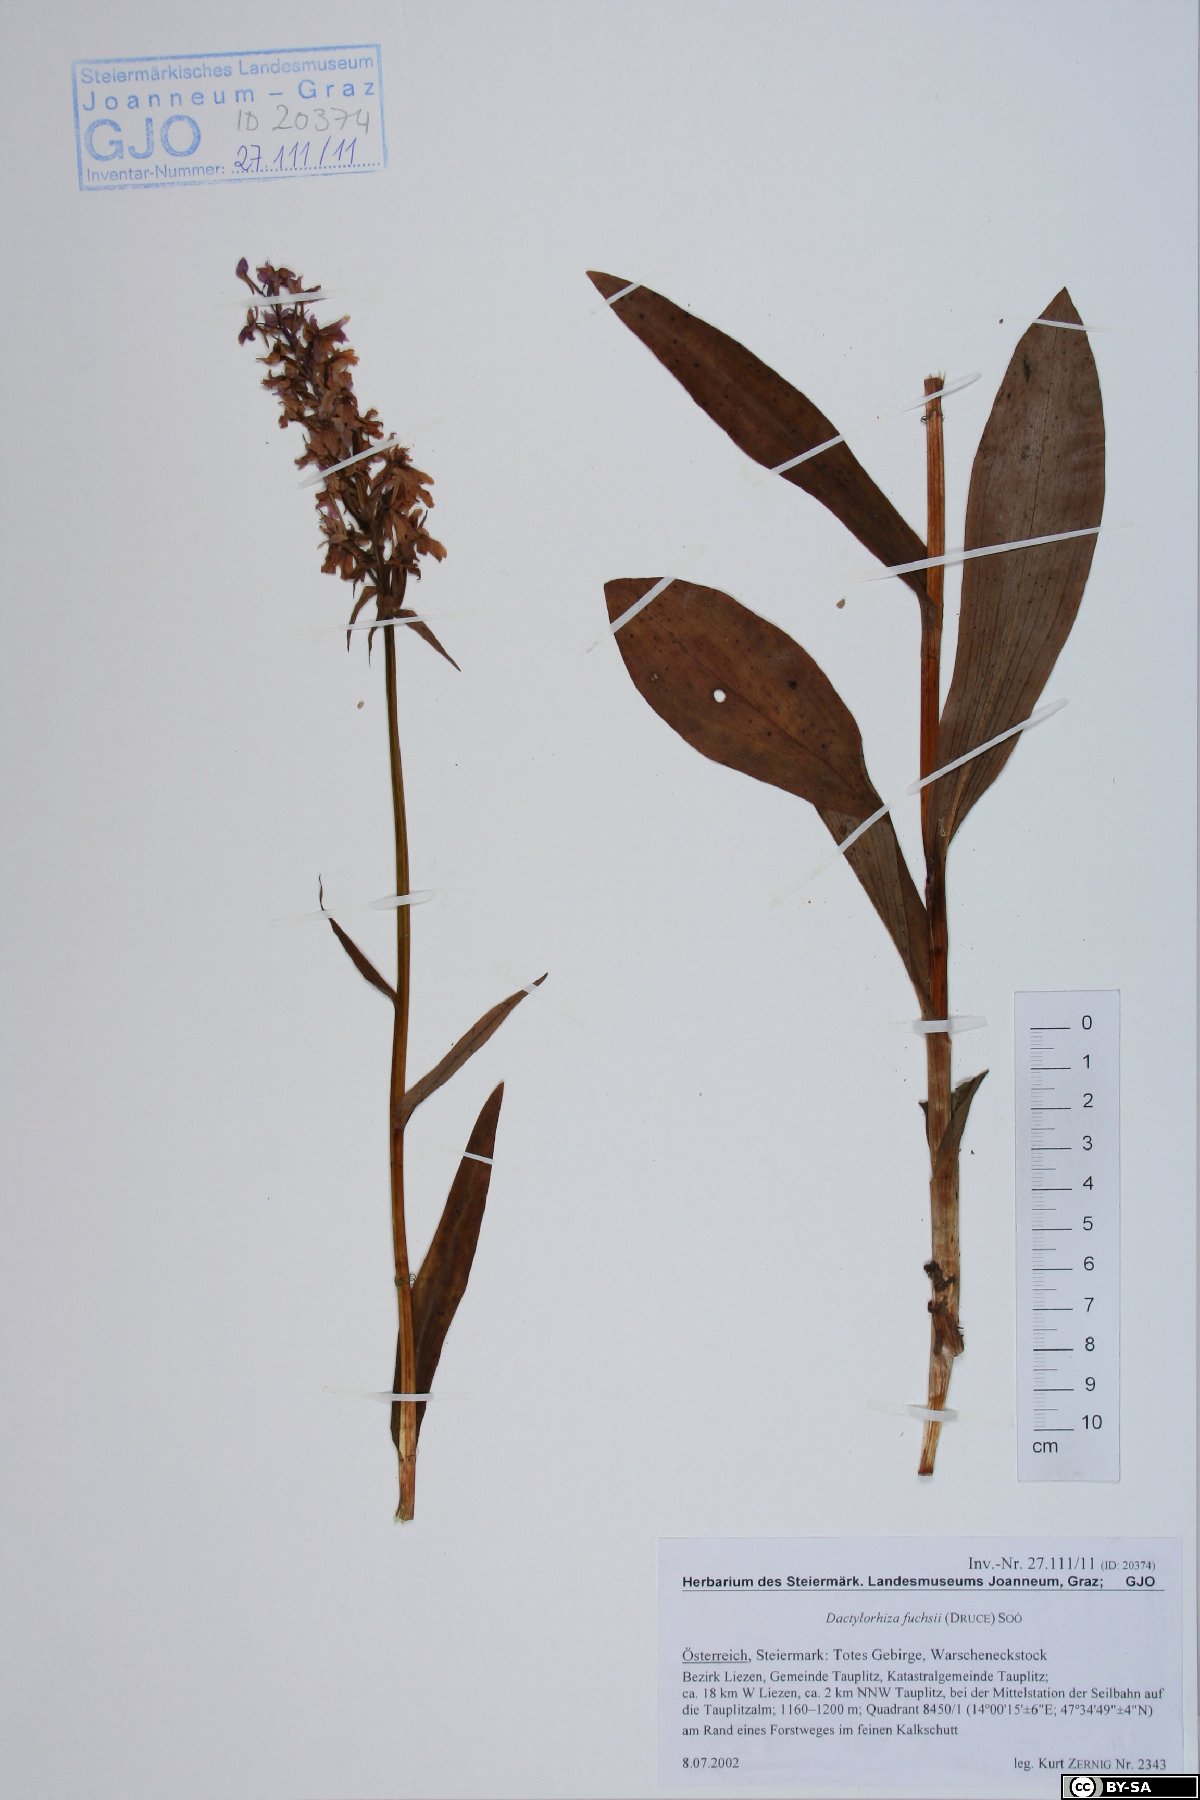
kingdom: Plantae
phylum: Tracheophyta
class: Liliopsida
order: Asparagales
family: Orchidaceae
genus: Dactylorhiza
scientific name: Dactylorhiza maculata
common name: Heath spotted-orchid
